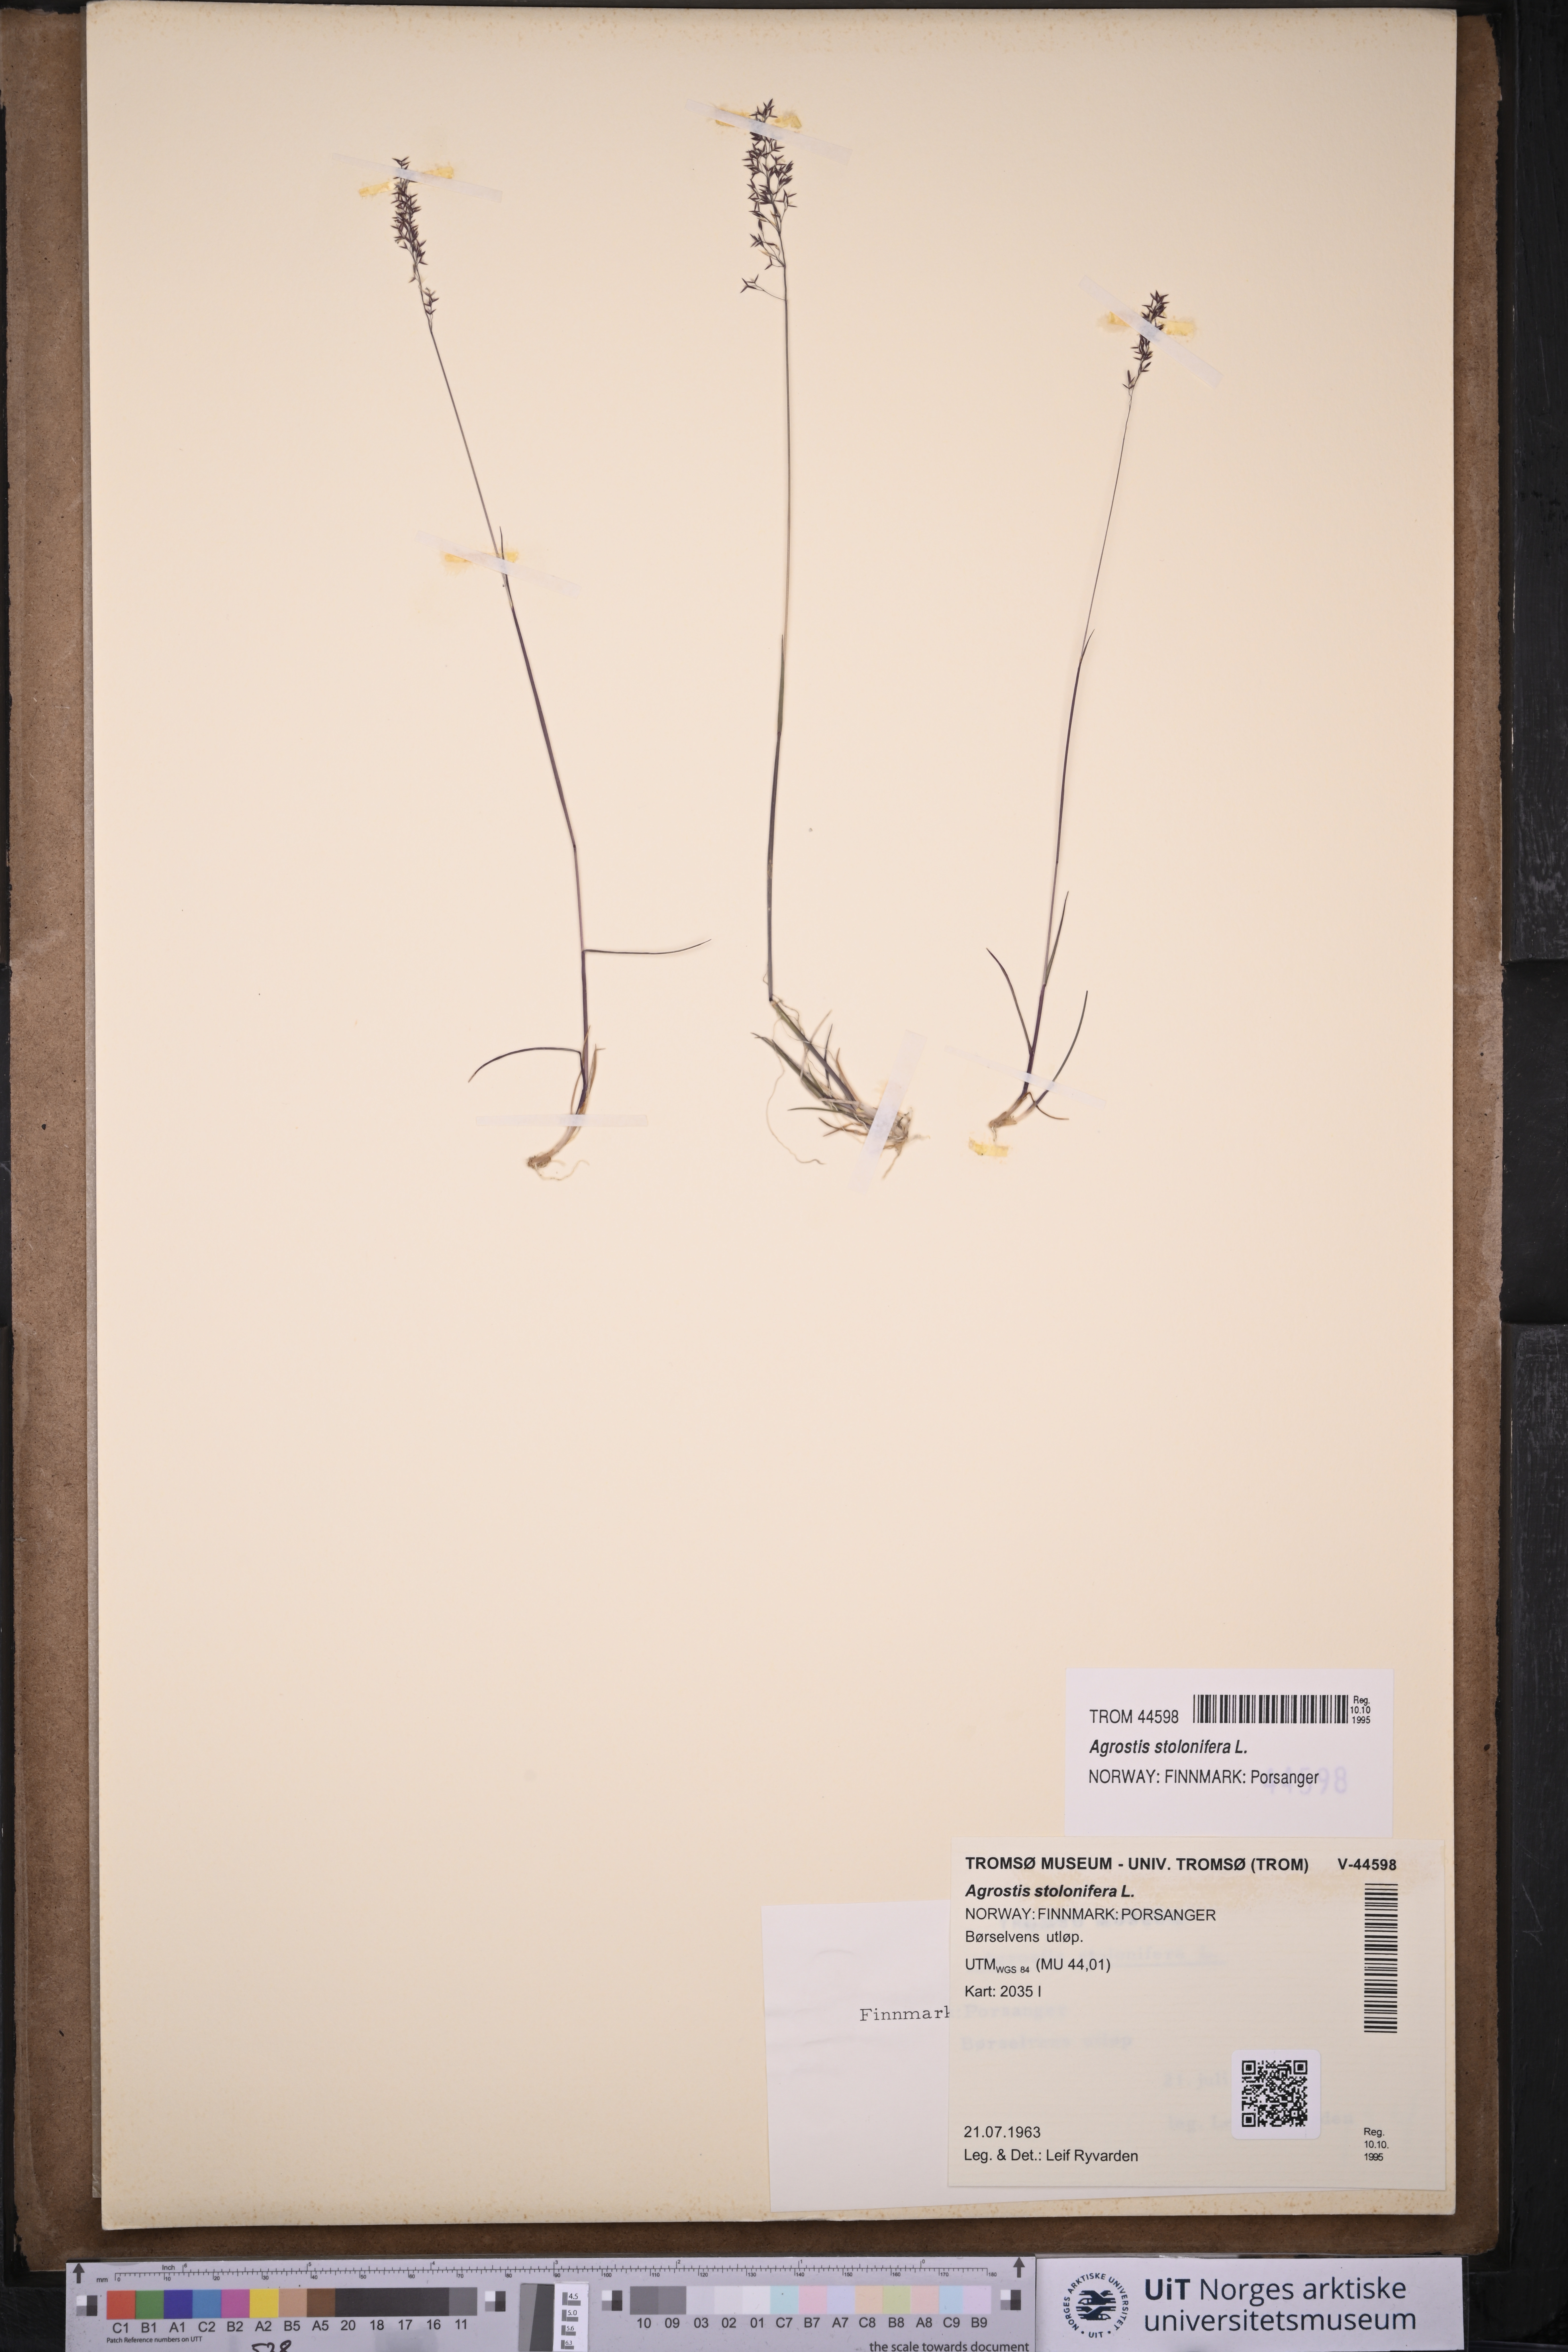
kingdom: Plantae
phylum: Tracheophyta
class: Liliopsida
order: Poales
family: Poaceae
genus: Agrostis
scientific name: Agrostis stolonifera
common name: Creeping bentgrass
